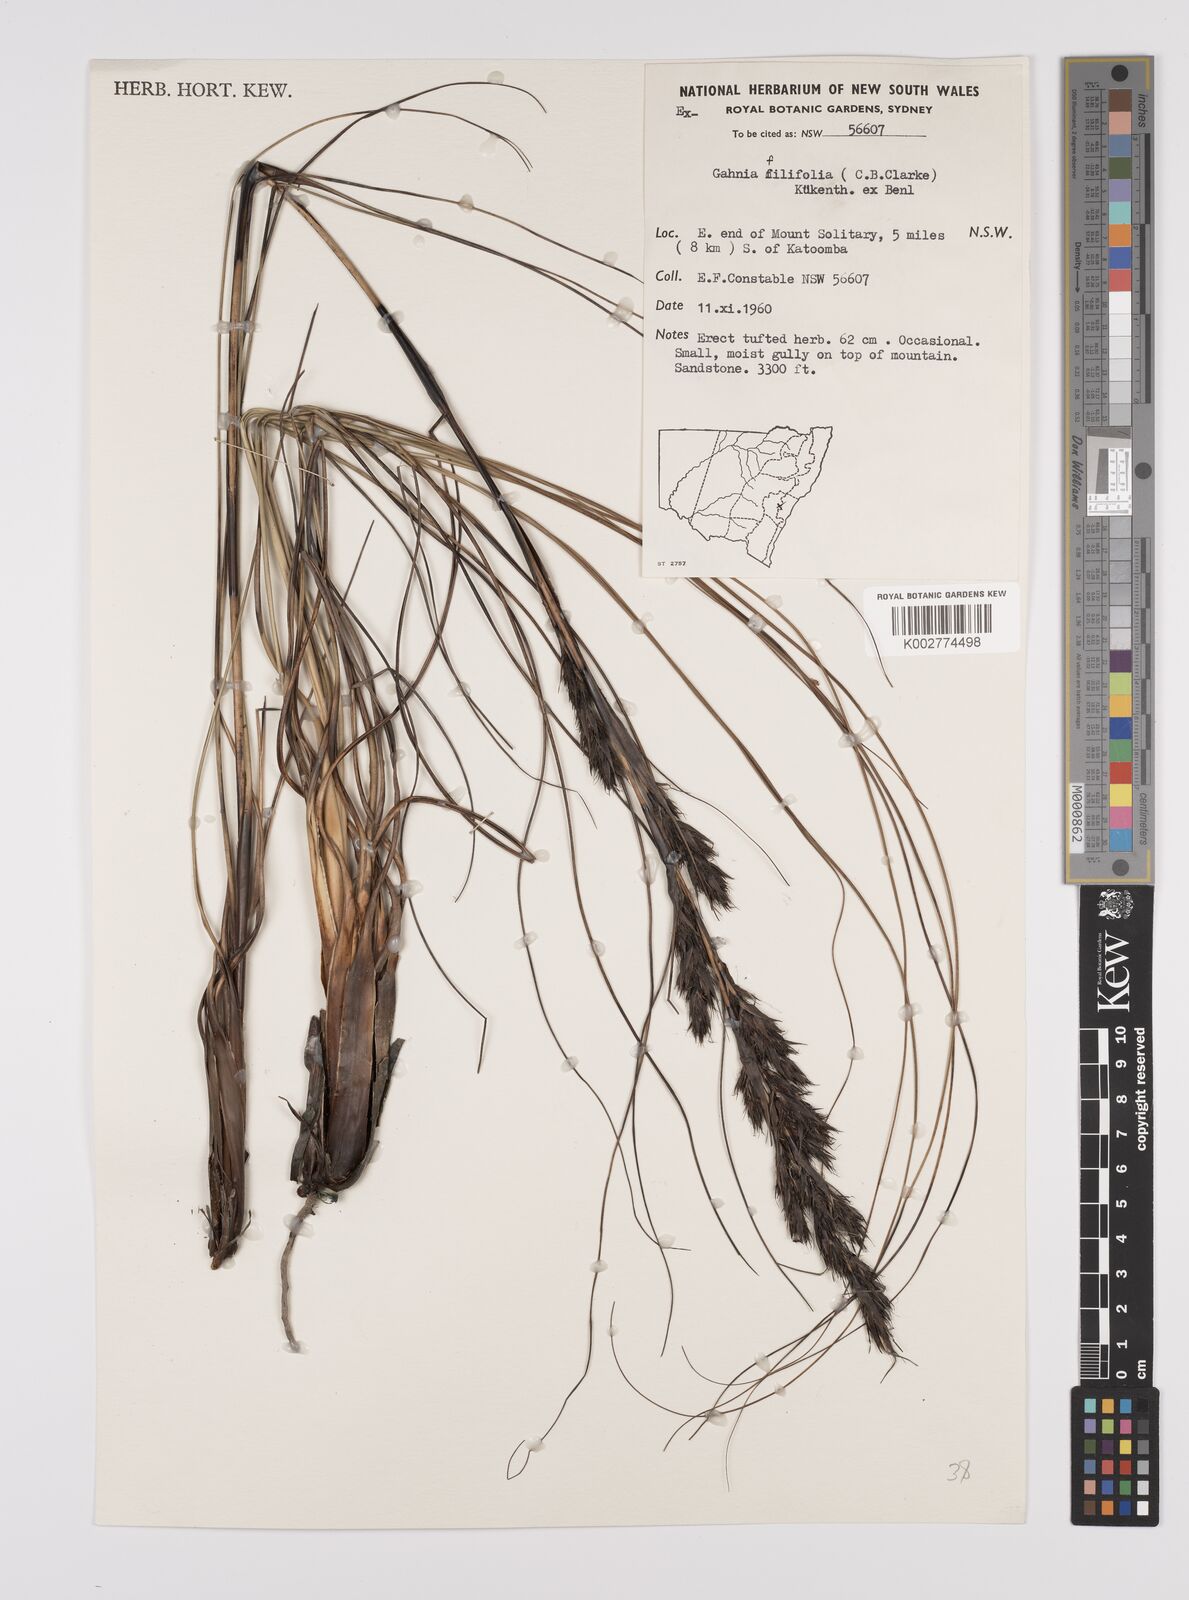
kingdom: Plantae
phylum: Tracheophyta
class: Liliopsida
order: Poales
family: Cyperaceae
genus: Gahnia
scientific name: Gahnia filifolia
